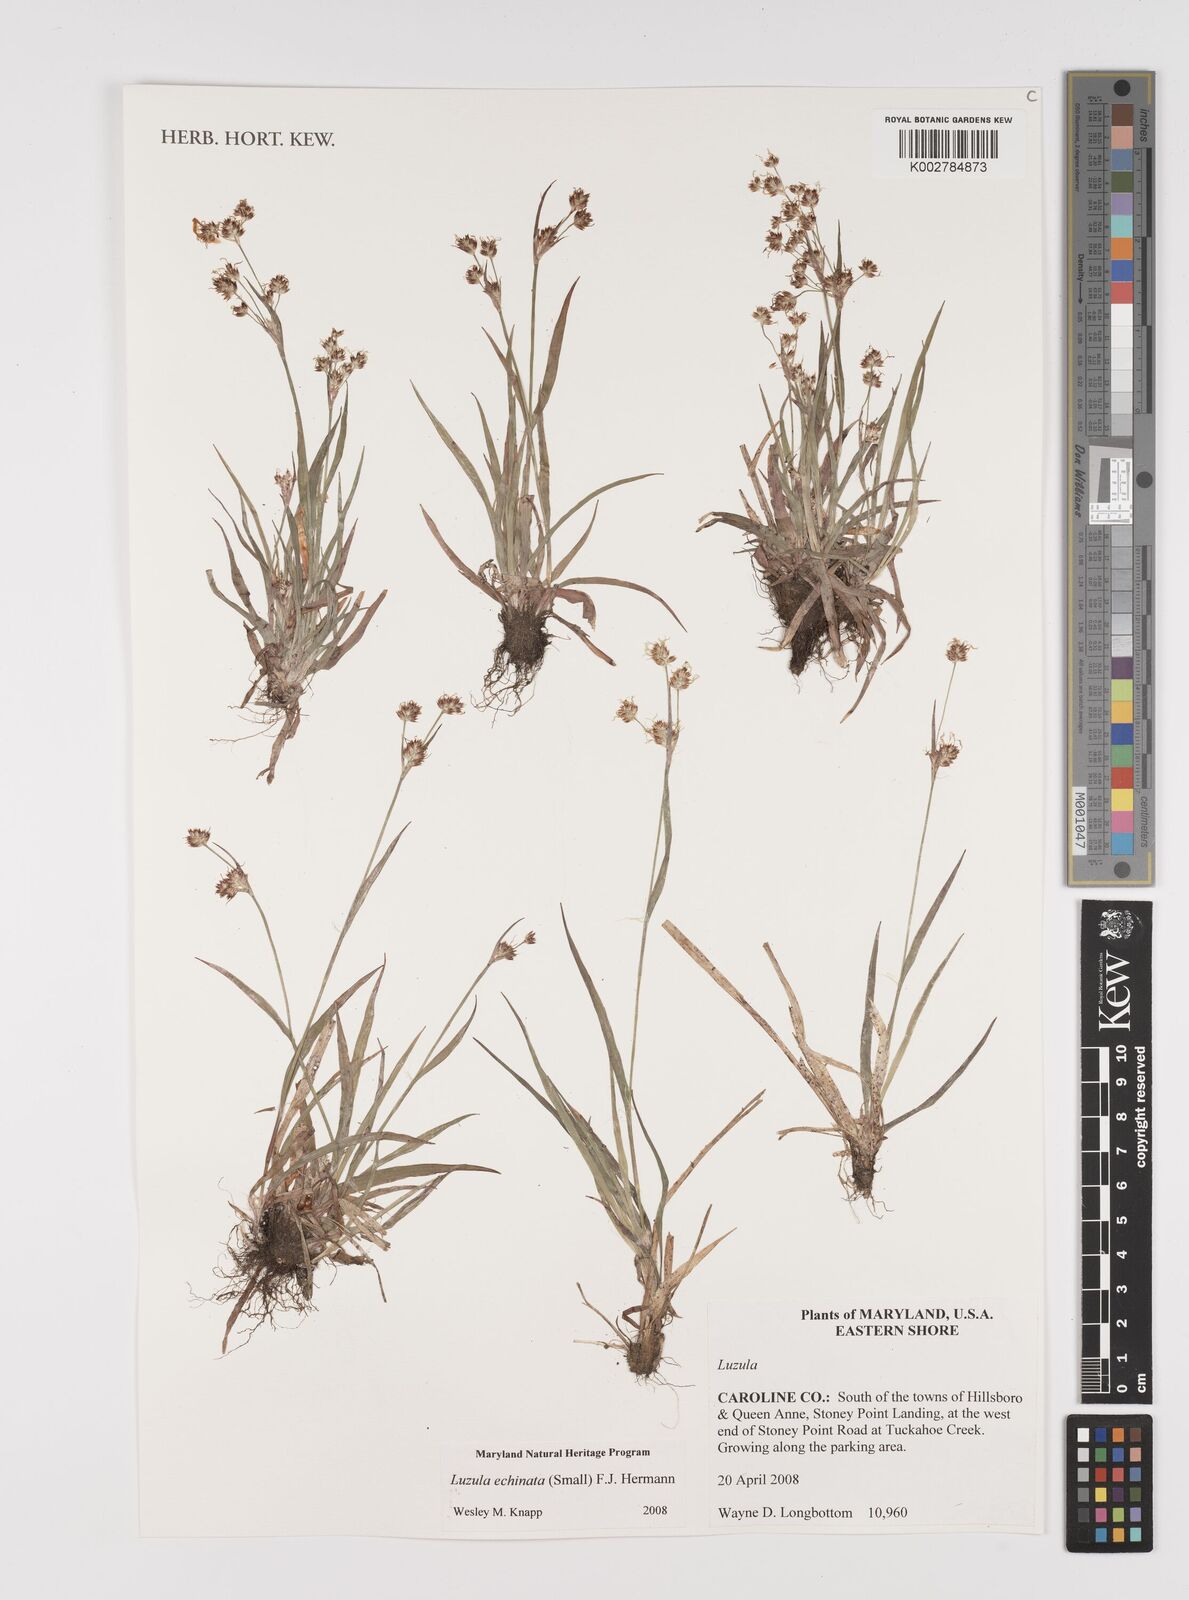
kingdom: Plantae
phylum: Tracheophyta
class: Liliopsida
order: Poales
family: Juncaceae
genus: Luzula
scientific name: Luzula echinata
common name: Hedgehog woodrush
